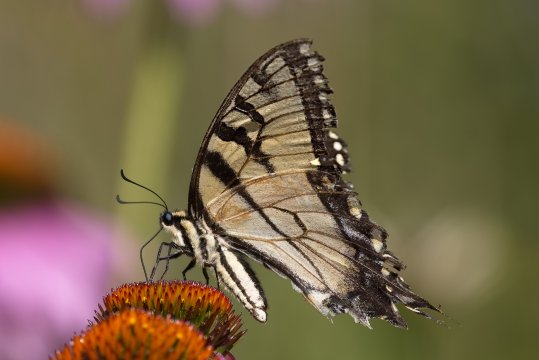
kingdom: Animalia
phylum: Arthropoda
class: Insecta
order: Lepidoptera
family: Papilionidae
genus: Pterourus
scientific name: Pterourus glaucus
